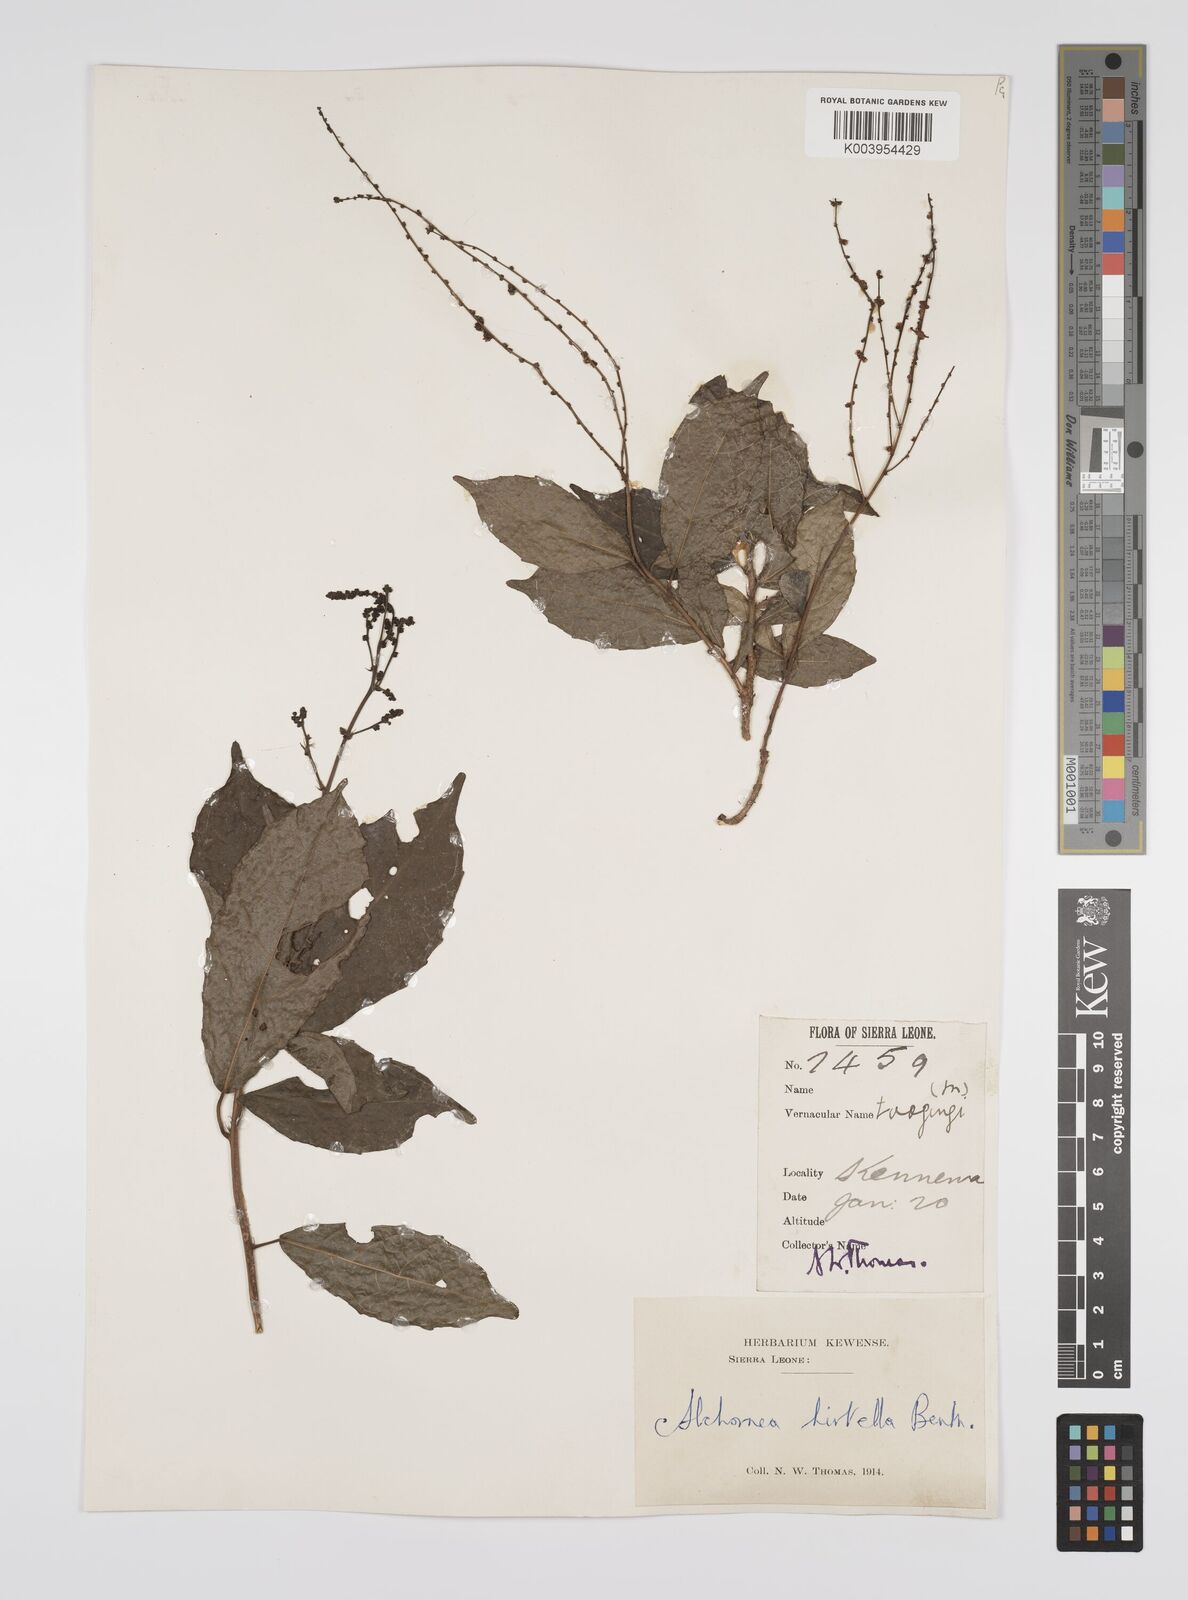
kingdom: Plantae
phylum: Tracheophyta
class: Magnoliopsida
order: Malpighiales
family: Euphorbiaceae
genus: Alchornea
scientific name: Alchornea hirtella
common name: Forest bead-string
